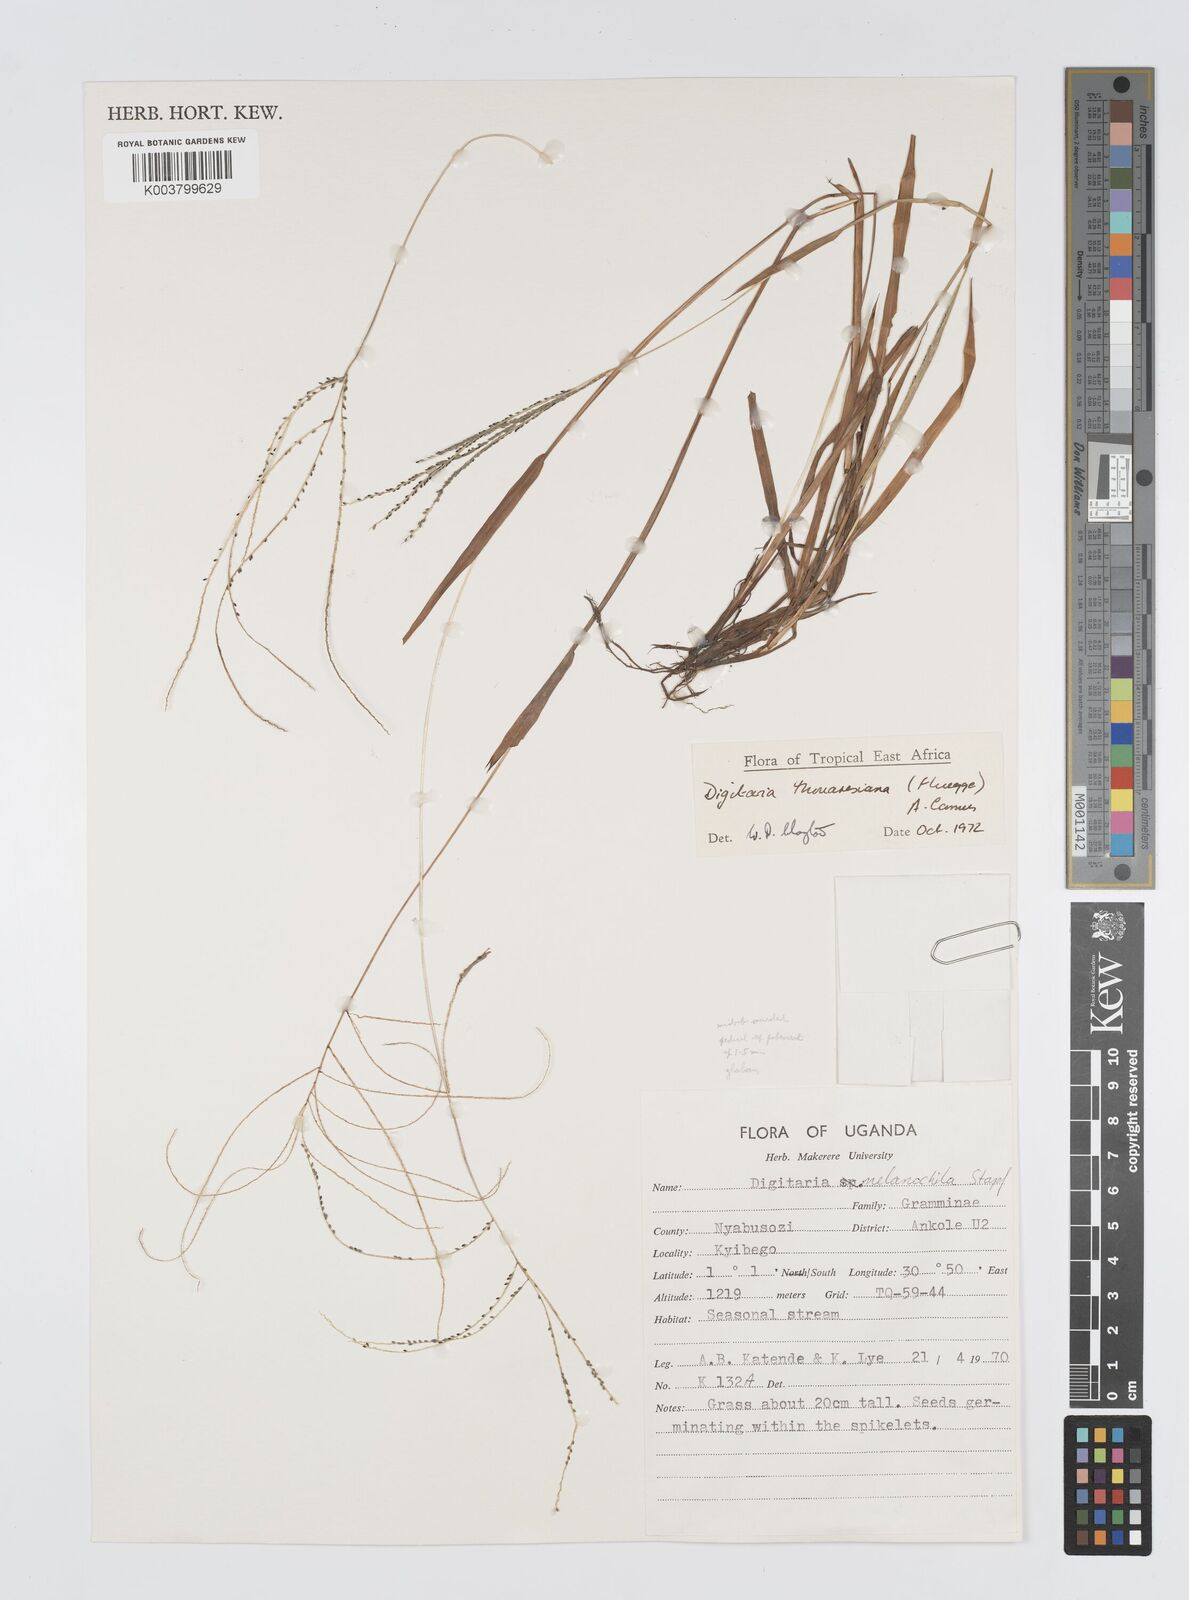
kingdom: Plantae
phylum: Tracheophyta
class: Liliopsida
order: Poales
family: Poaceae
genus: Digitaria
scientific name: Digitaria thouarsiana
